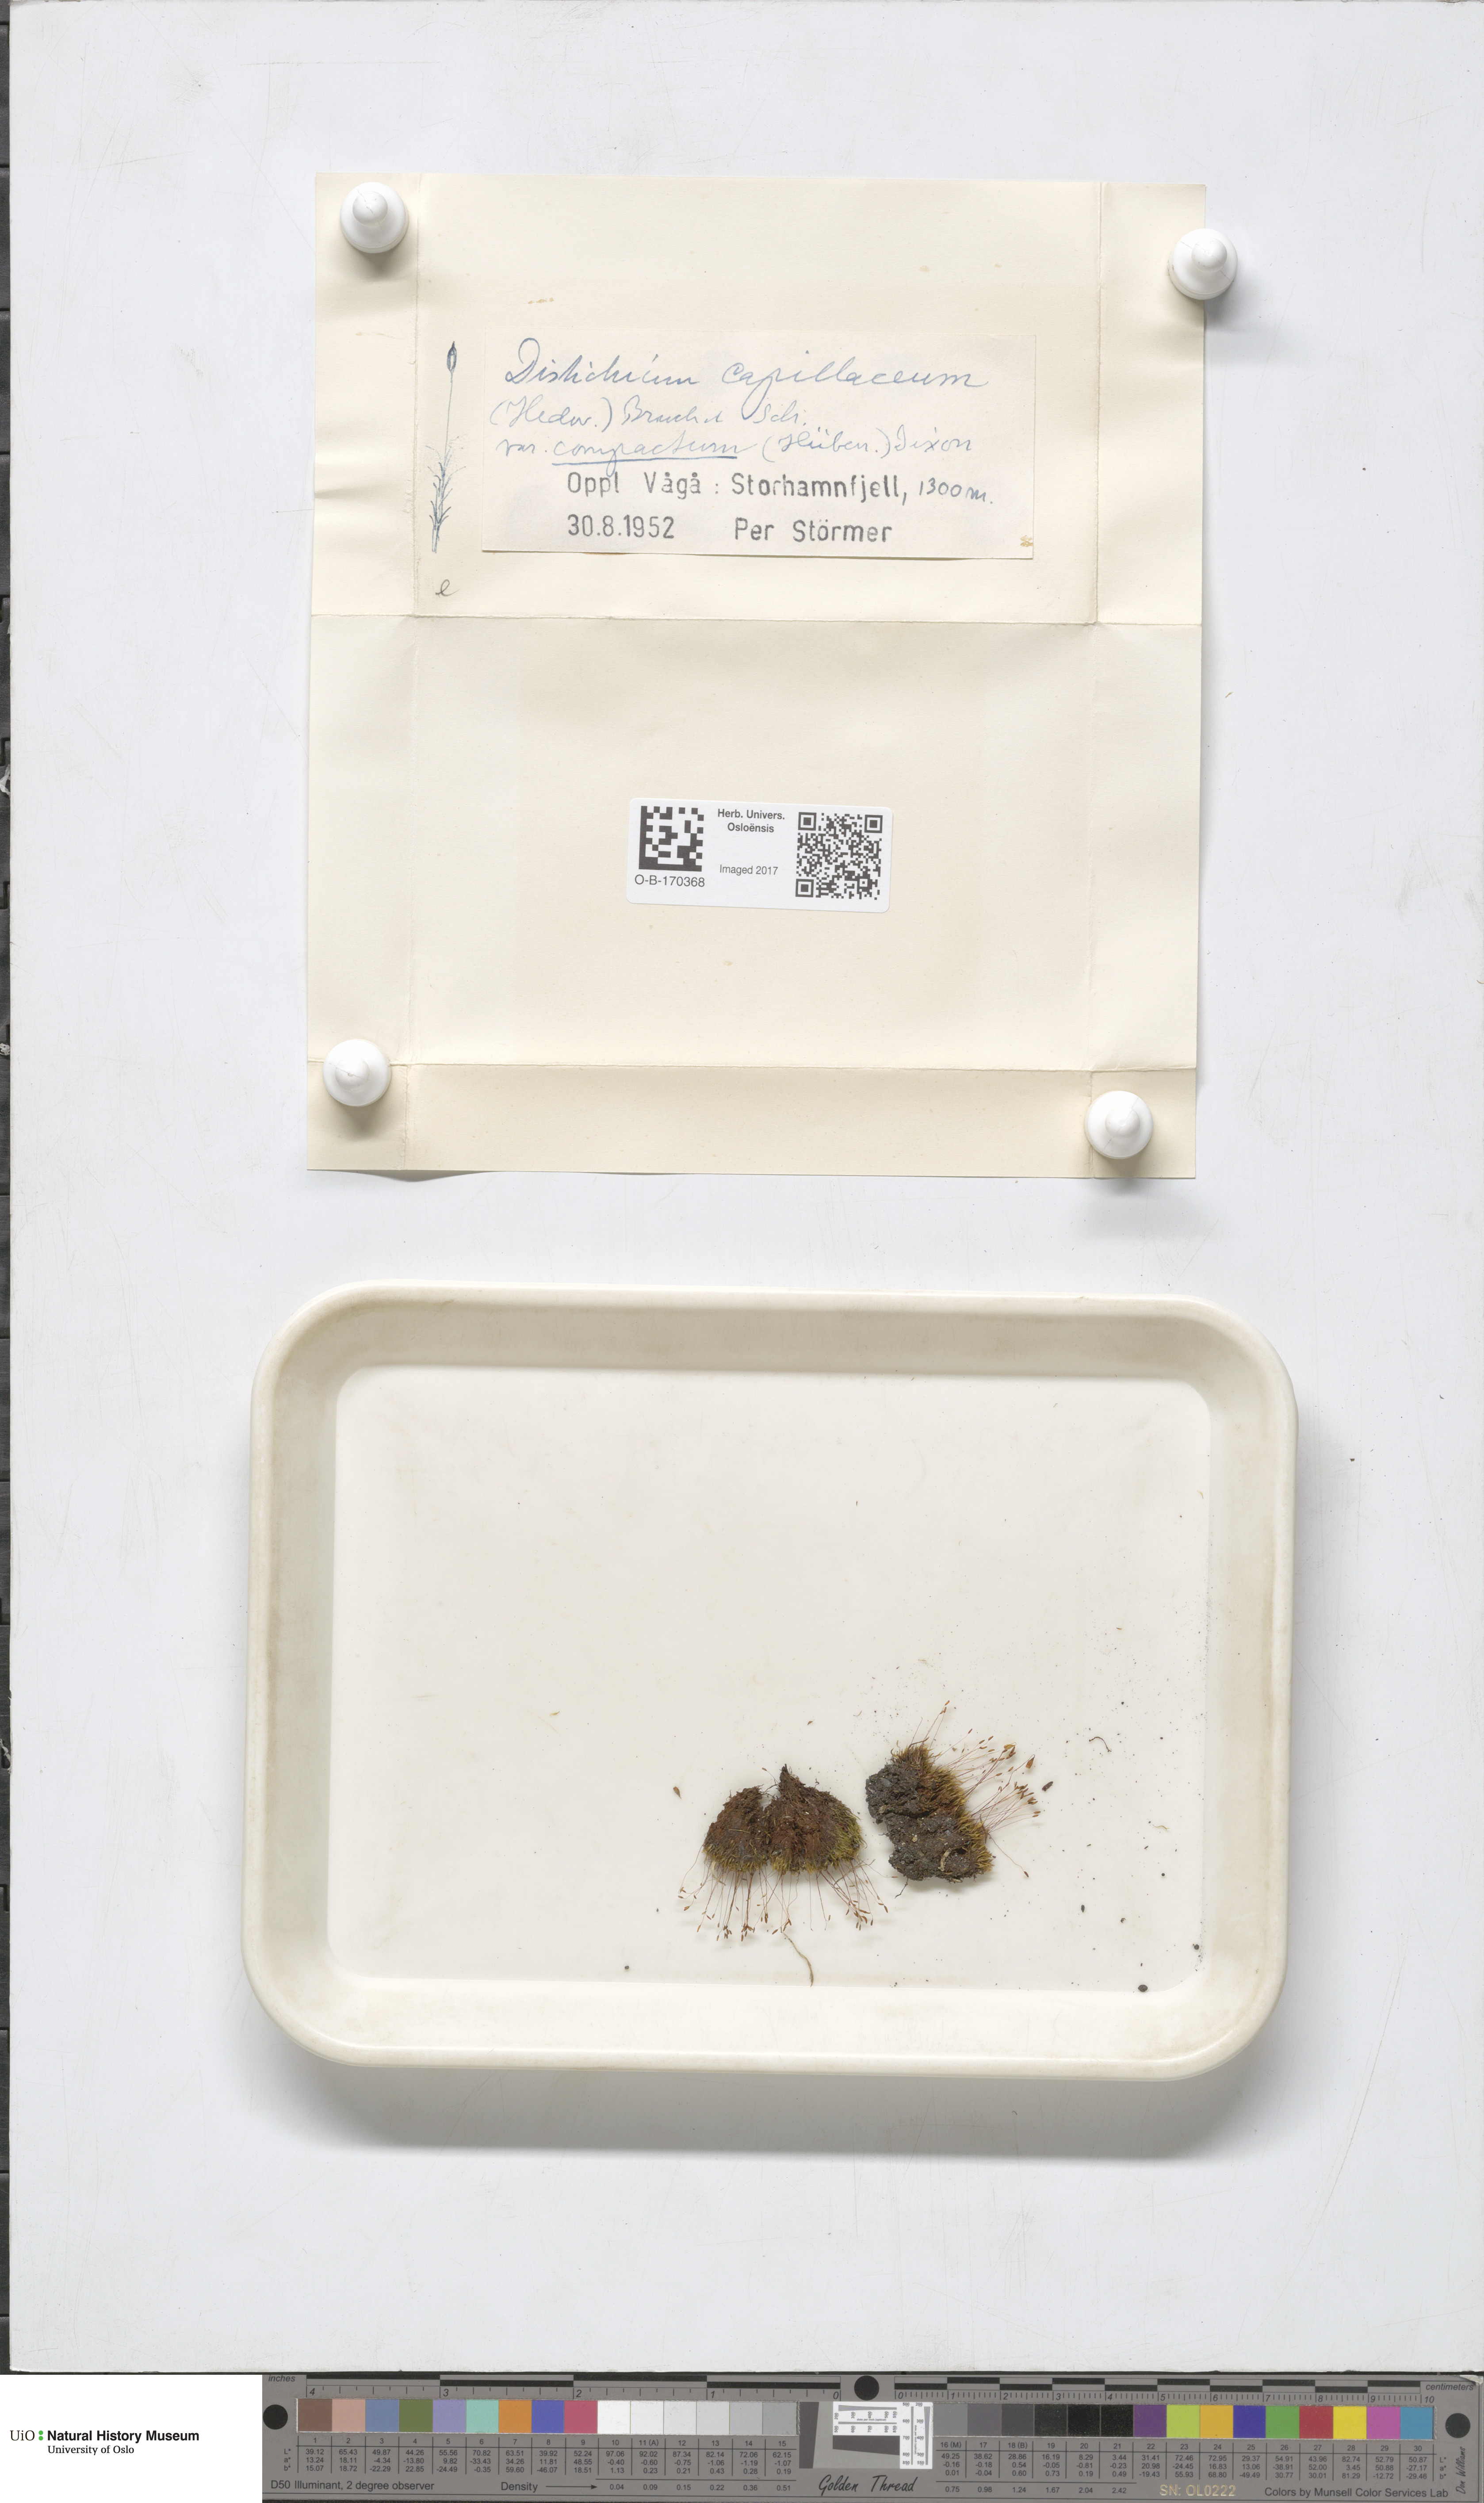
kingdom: Plantae
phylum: Bryophyta
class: Bryopsida
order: Scouleriales
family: Distichiaceae
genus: Distichium
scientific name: Distichium capillaceum
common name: Erect-fruited iris moss
